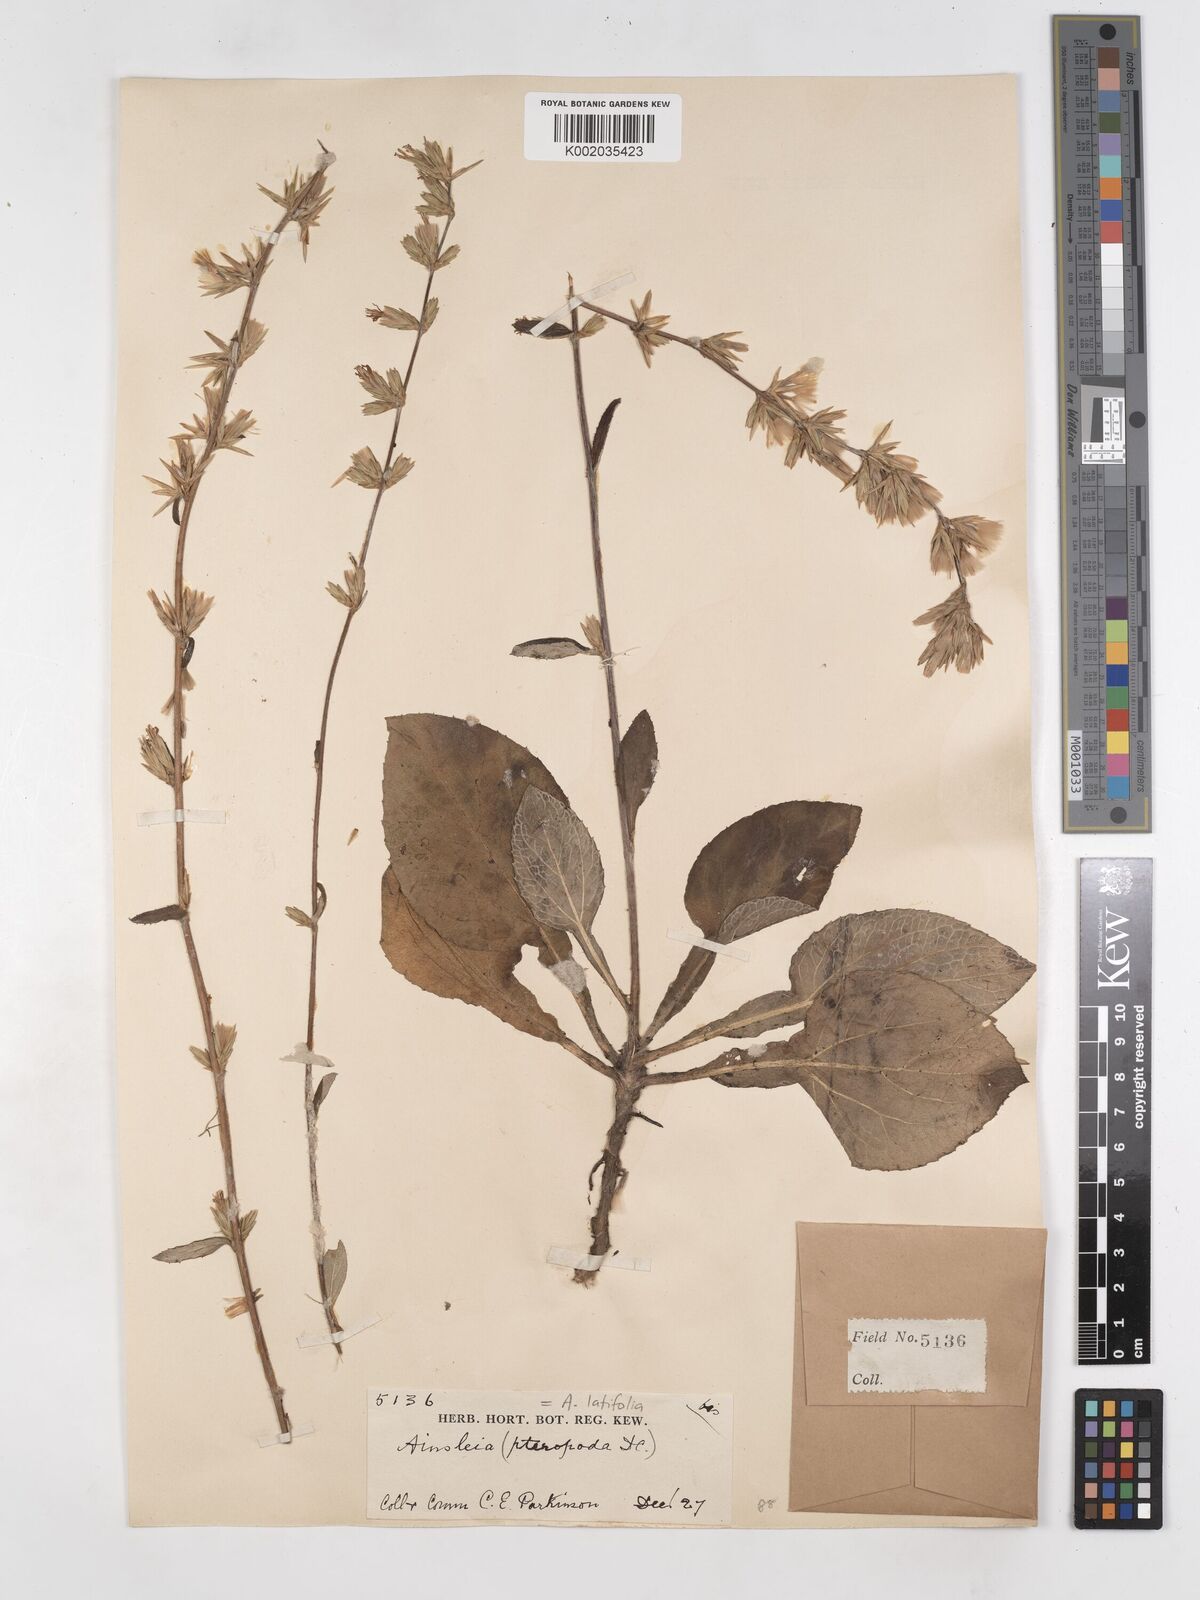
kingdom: Plantae
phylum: Tracheophyta
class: Magnoliopsida
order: Asterales
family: Asteraceae
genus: Ainsliaea
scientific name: Ainsliaea latifolia
